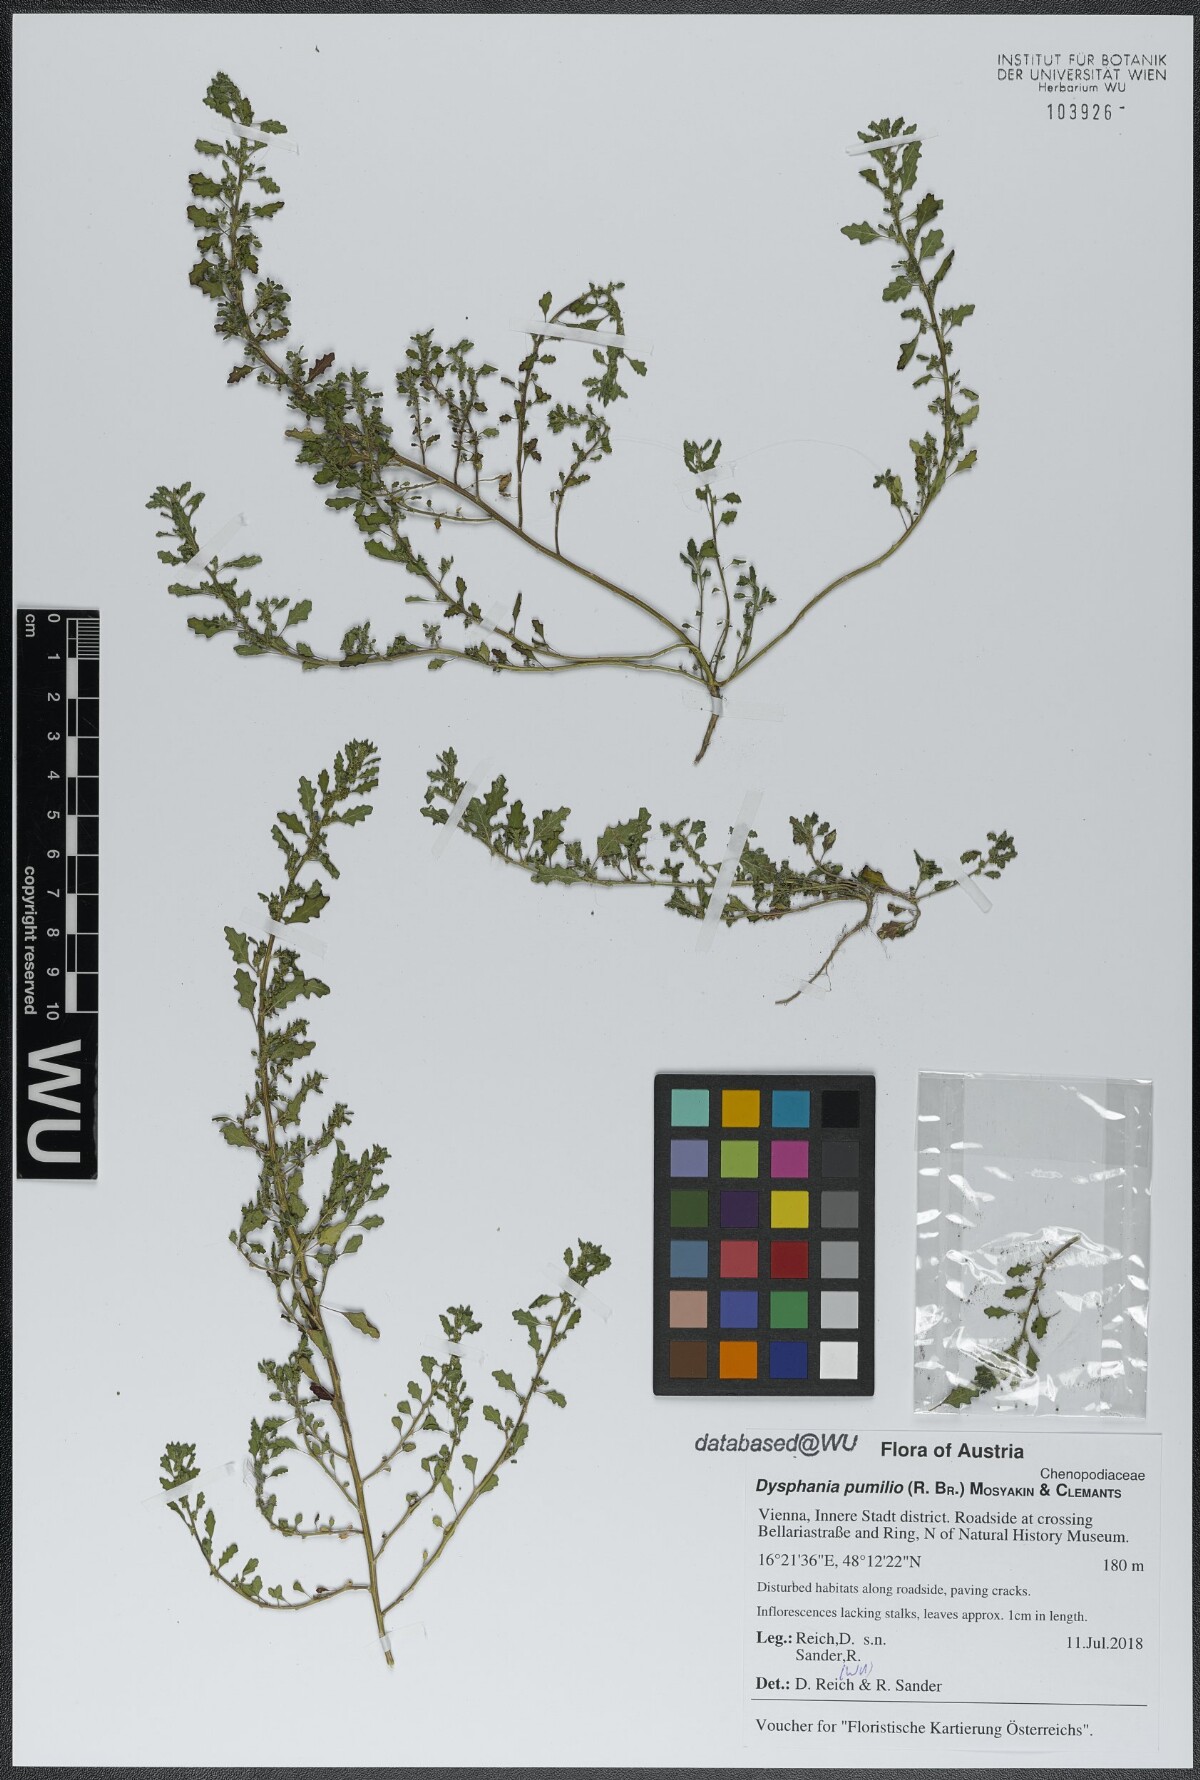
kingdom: Plantae
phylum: Tracheophyta
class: Magnoliopsida
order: Caryophyllales
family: Amaranthaceae
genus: Dysphania
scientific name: Dysphania pumilio
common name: Clammy goosefoot
